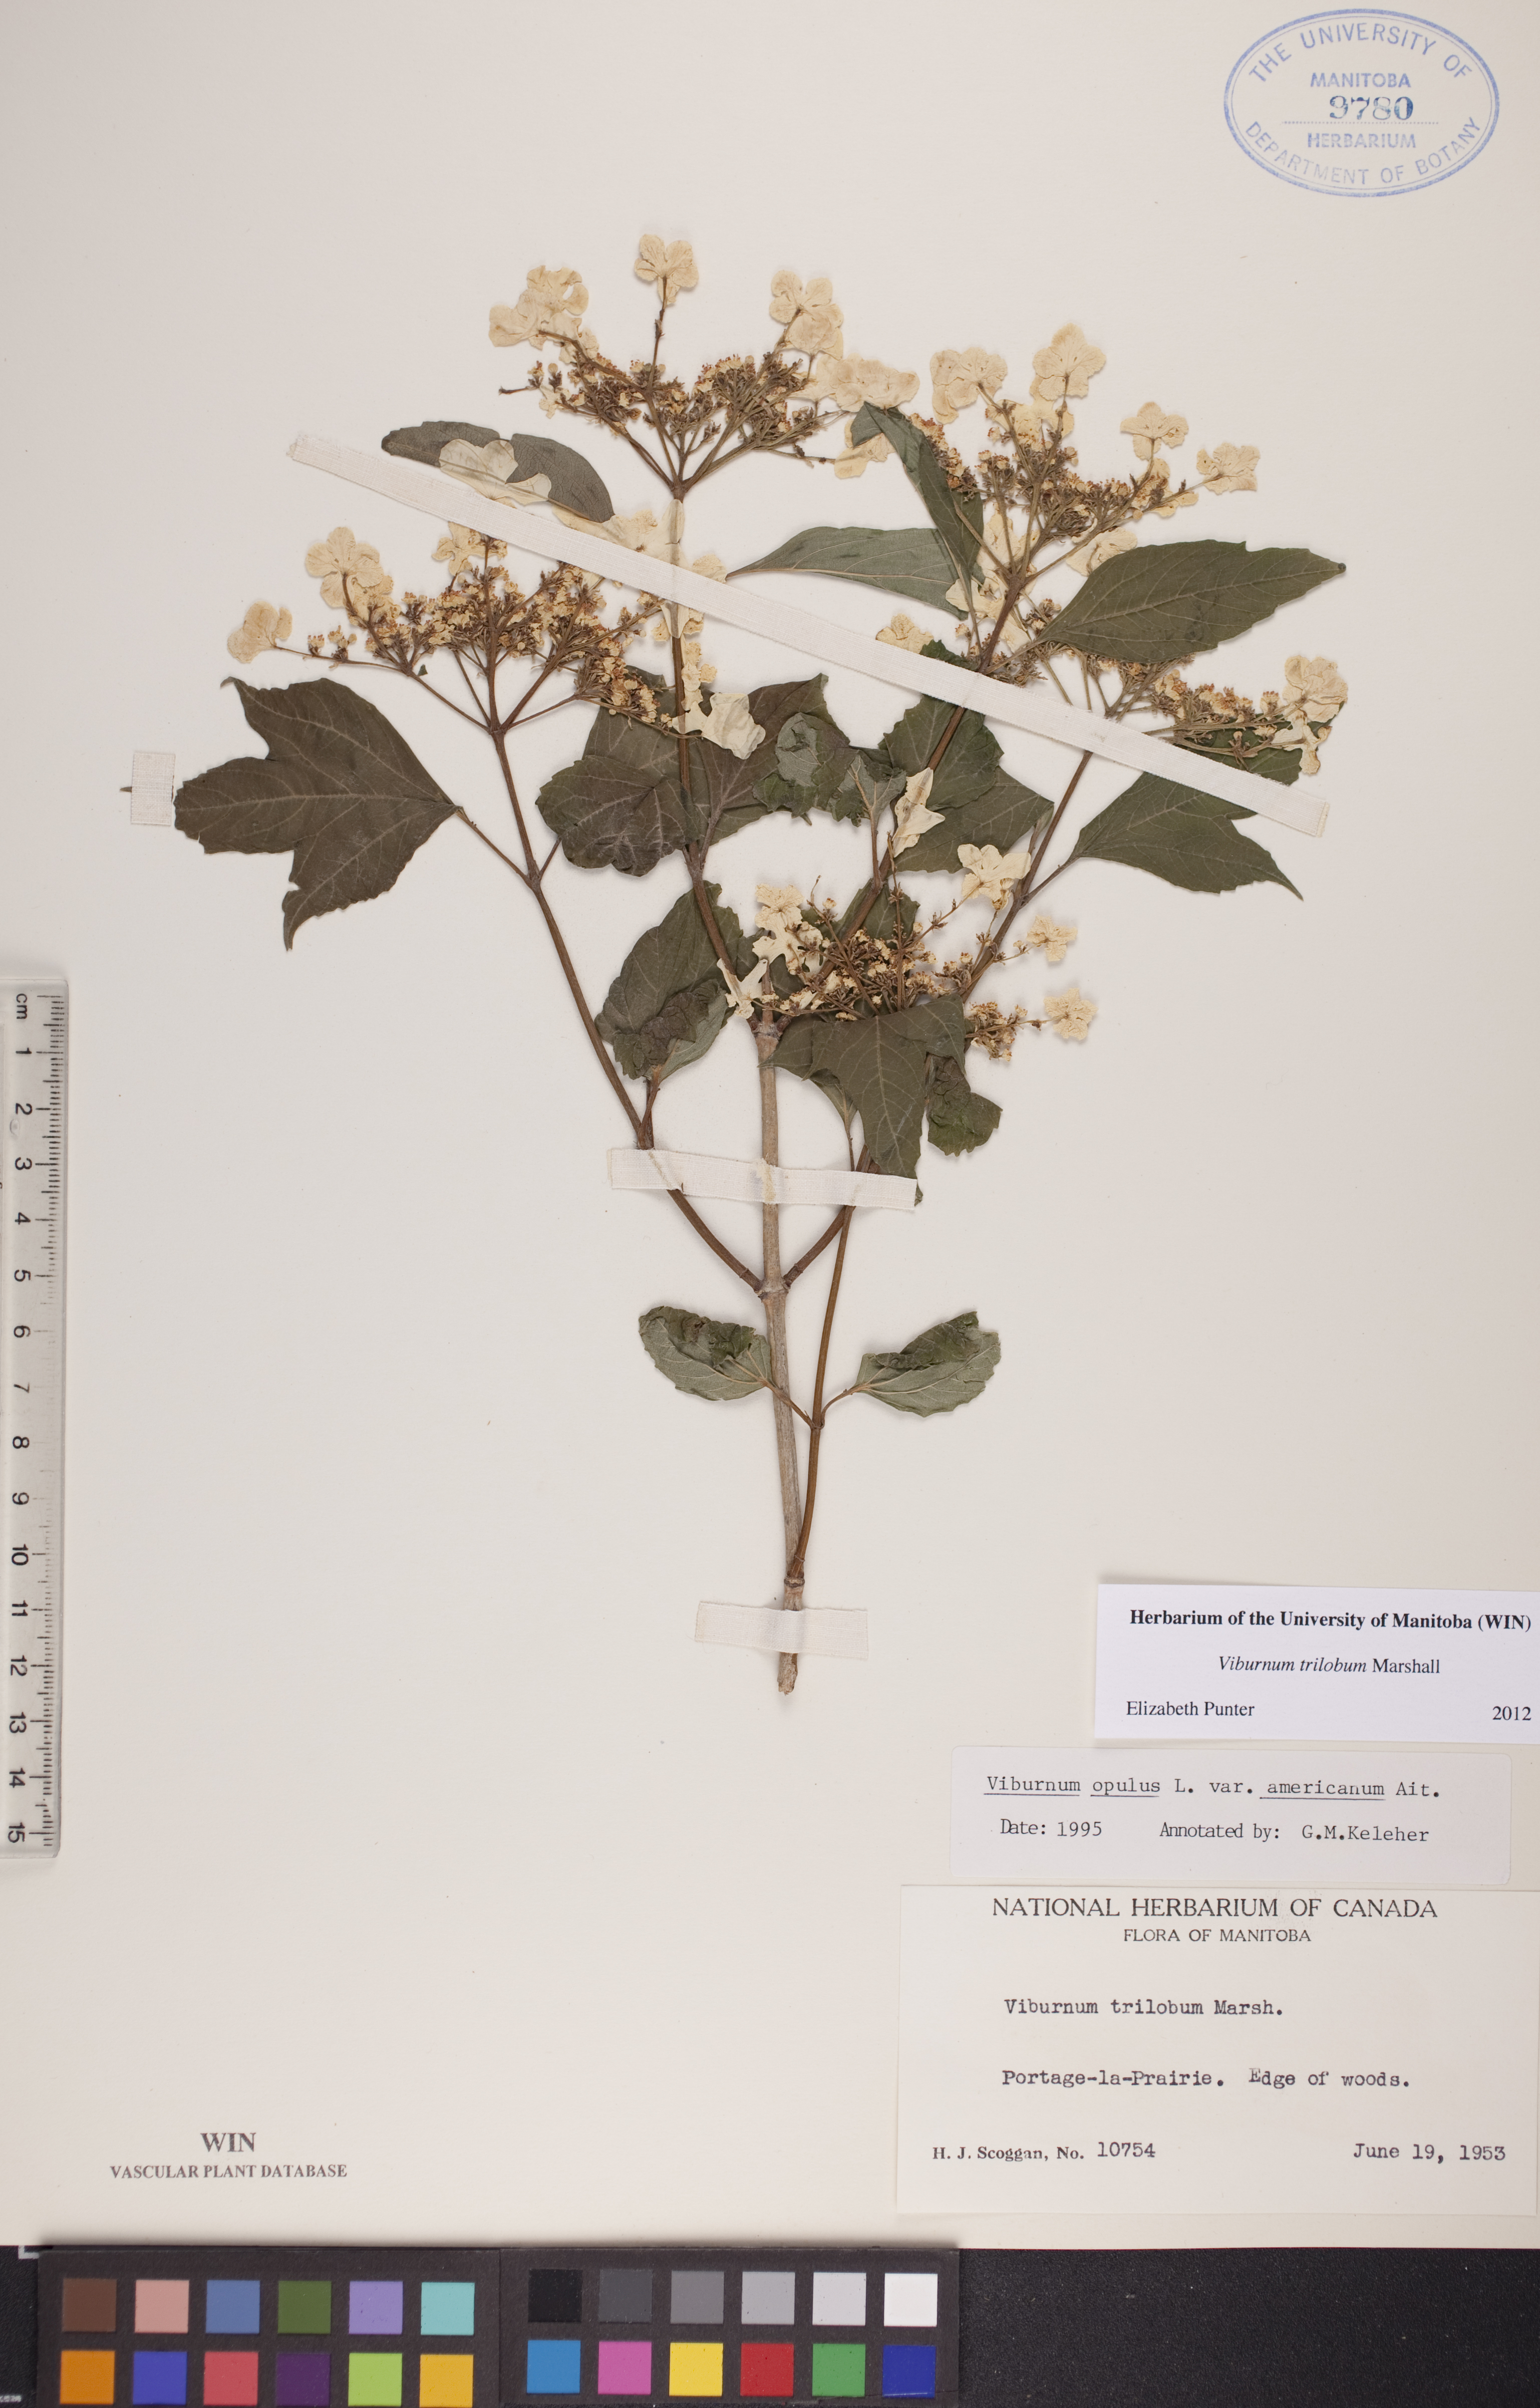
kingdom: Plantae
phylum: Tracheophyta
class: Magnoliopsida
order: Dipsacales
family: Viburnaceae
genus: Viburnum
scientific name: Viburnum trilobum
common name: American cranberrybush
